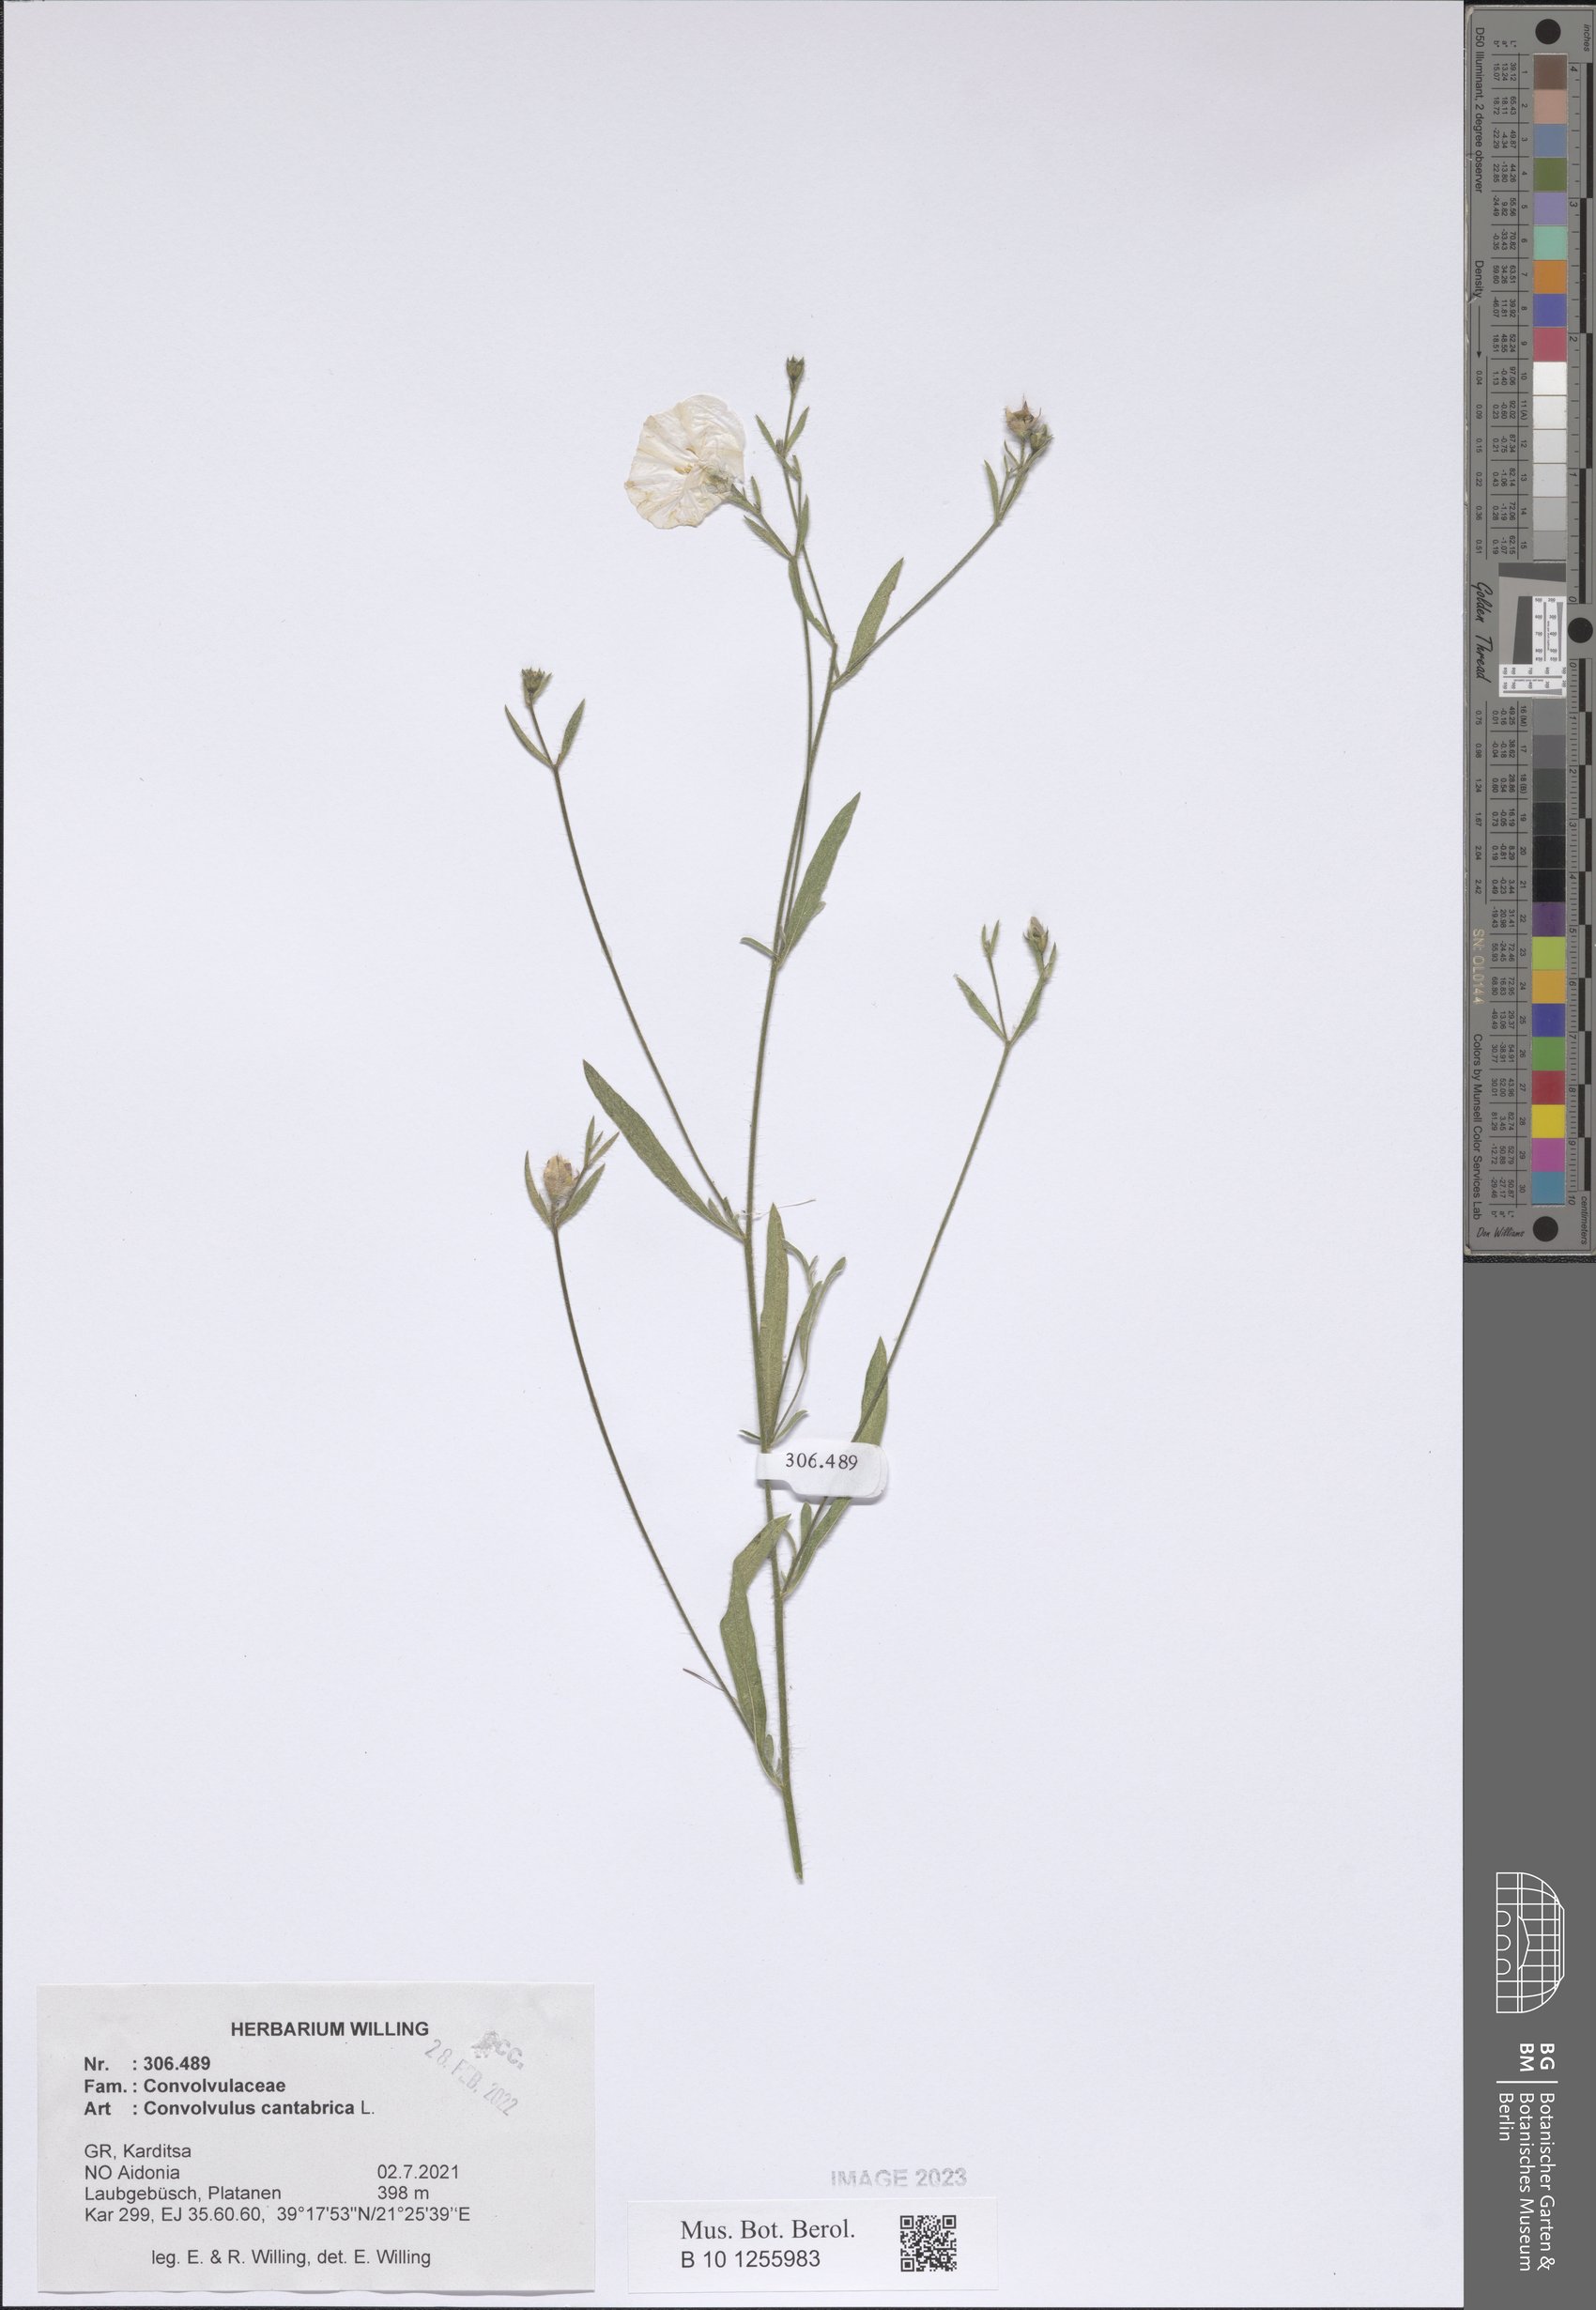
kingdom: Plantae
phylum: Tracheophyta
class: Magnoliopsida
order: Solanales
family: Convolvulaceae
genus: Convolvulus
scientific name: Convolvulus cantabrica
